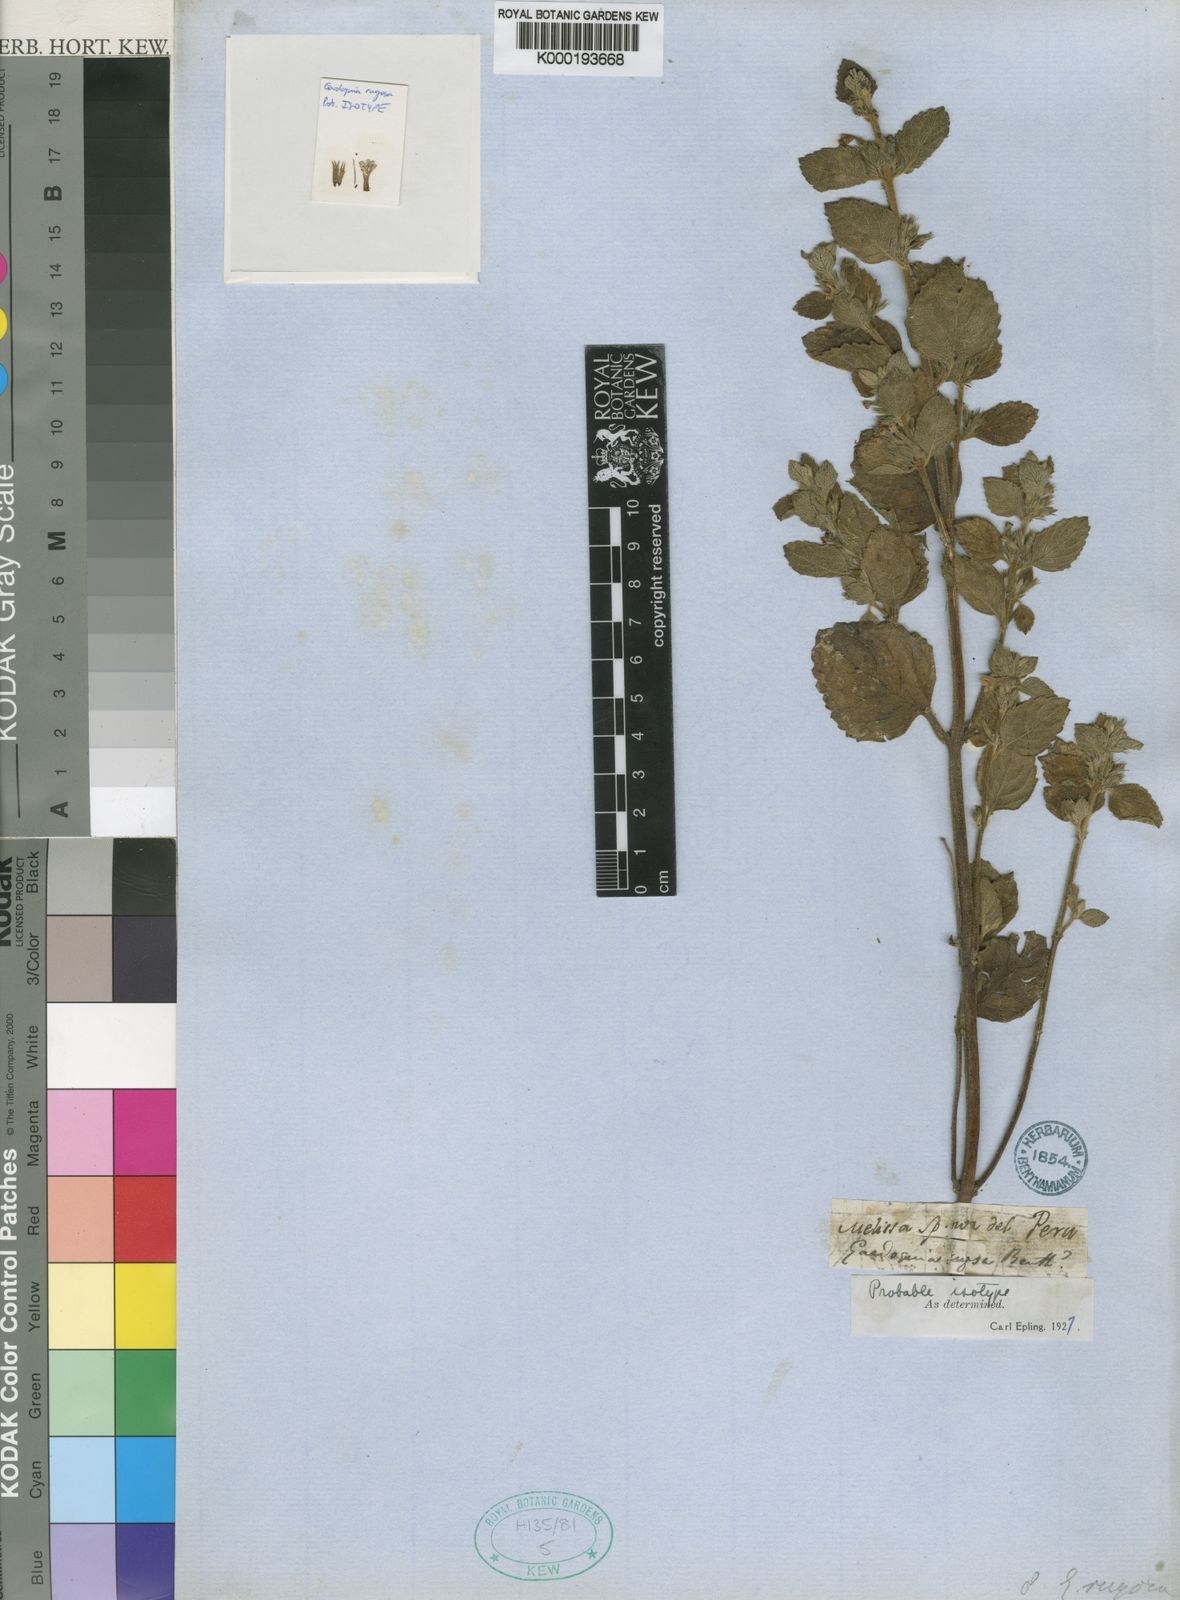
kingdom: Plantae
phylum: Tracheophyta
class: Magnoliopsida
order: Lamiales
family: Lamiaceae
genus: Clinopodium
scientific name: Clinopodium pulchellum
